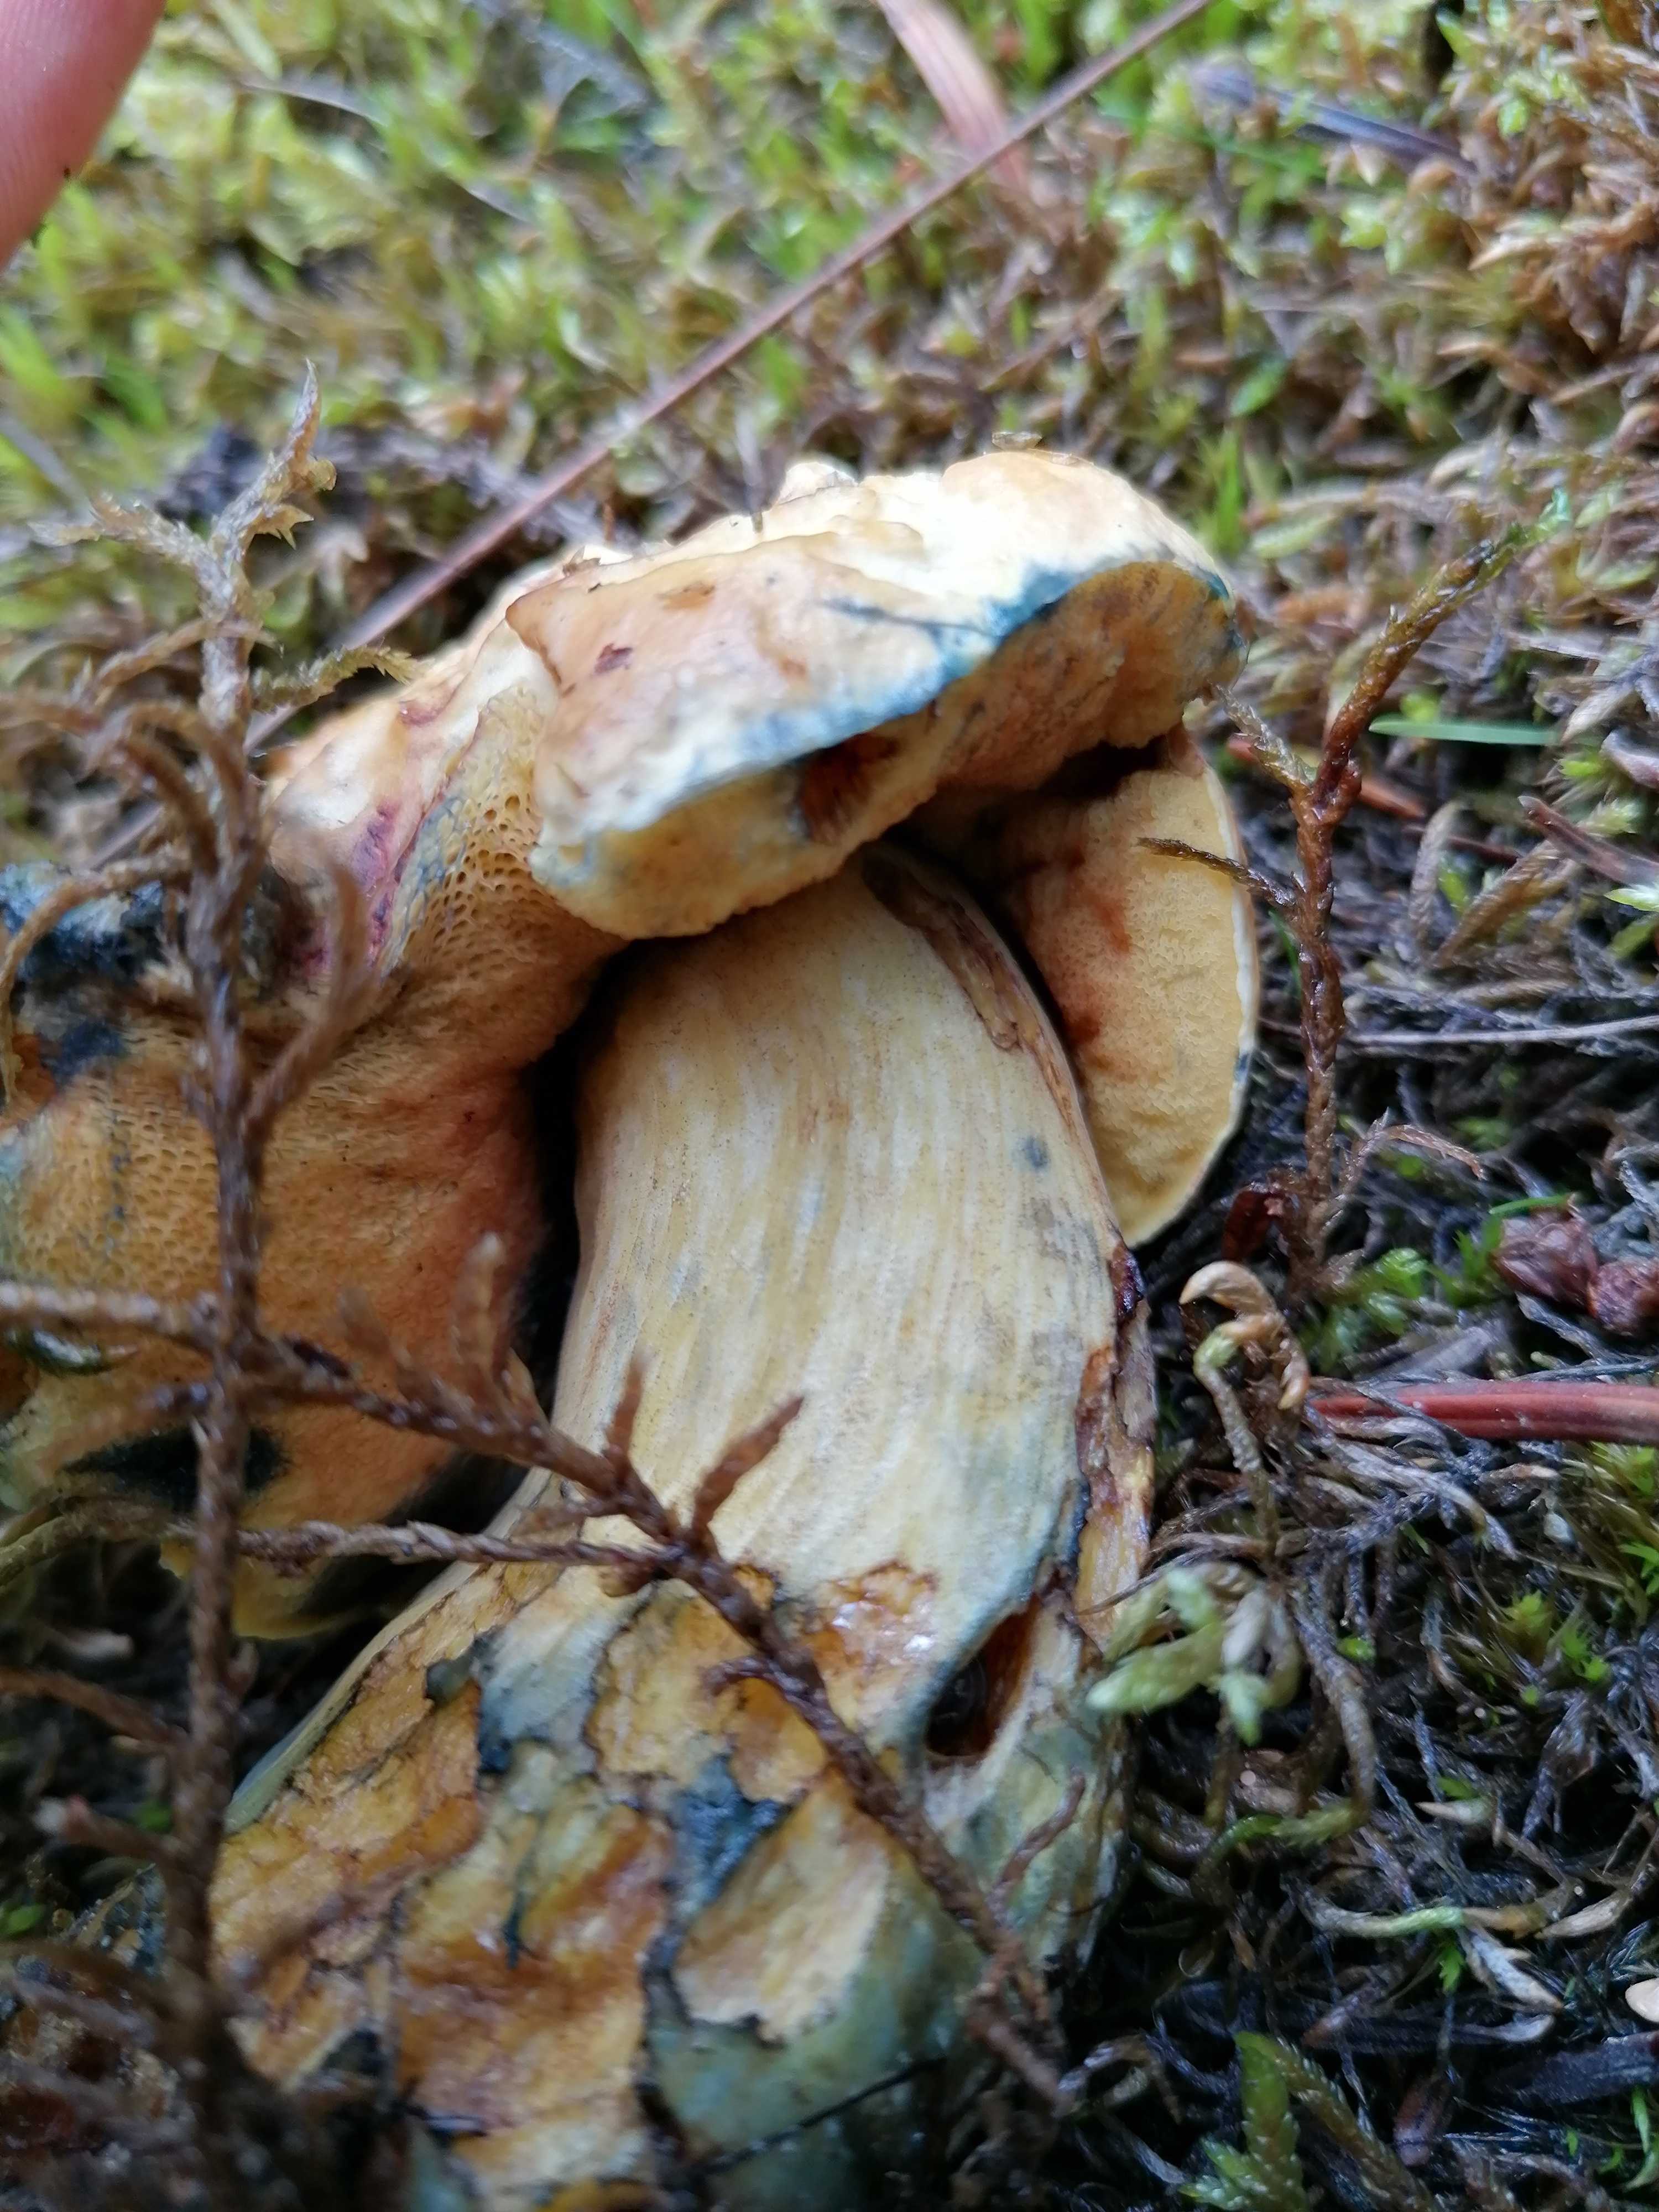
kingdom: Fungi
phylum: Basidiomycota
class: Agaricomycetes
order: Boletales
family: Boletaceae
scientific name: Boletaceae
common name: rørhatfamilien
